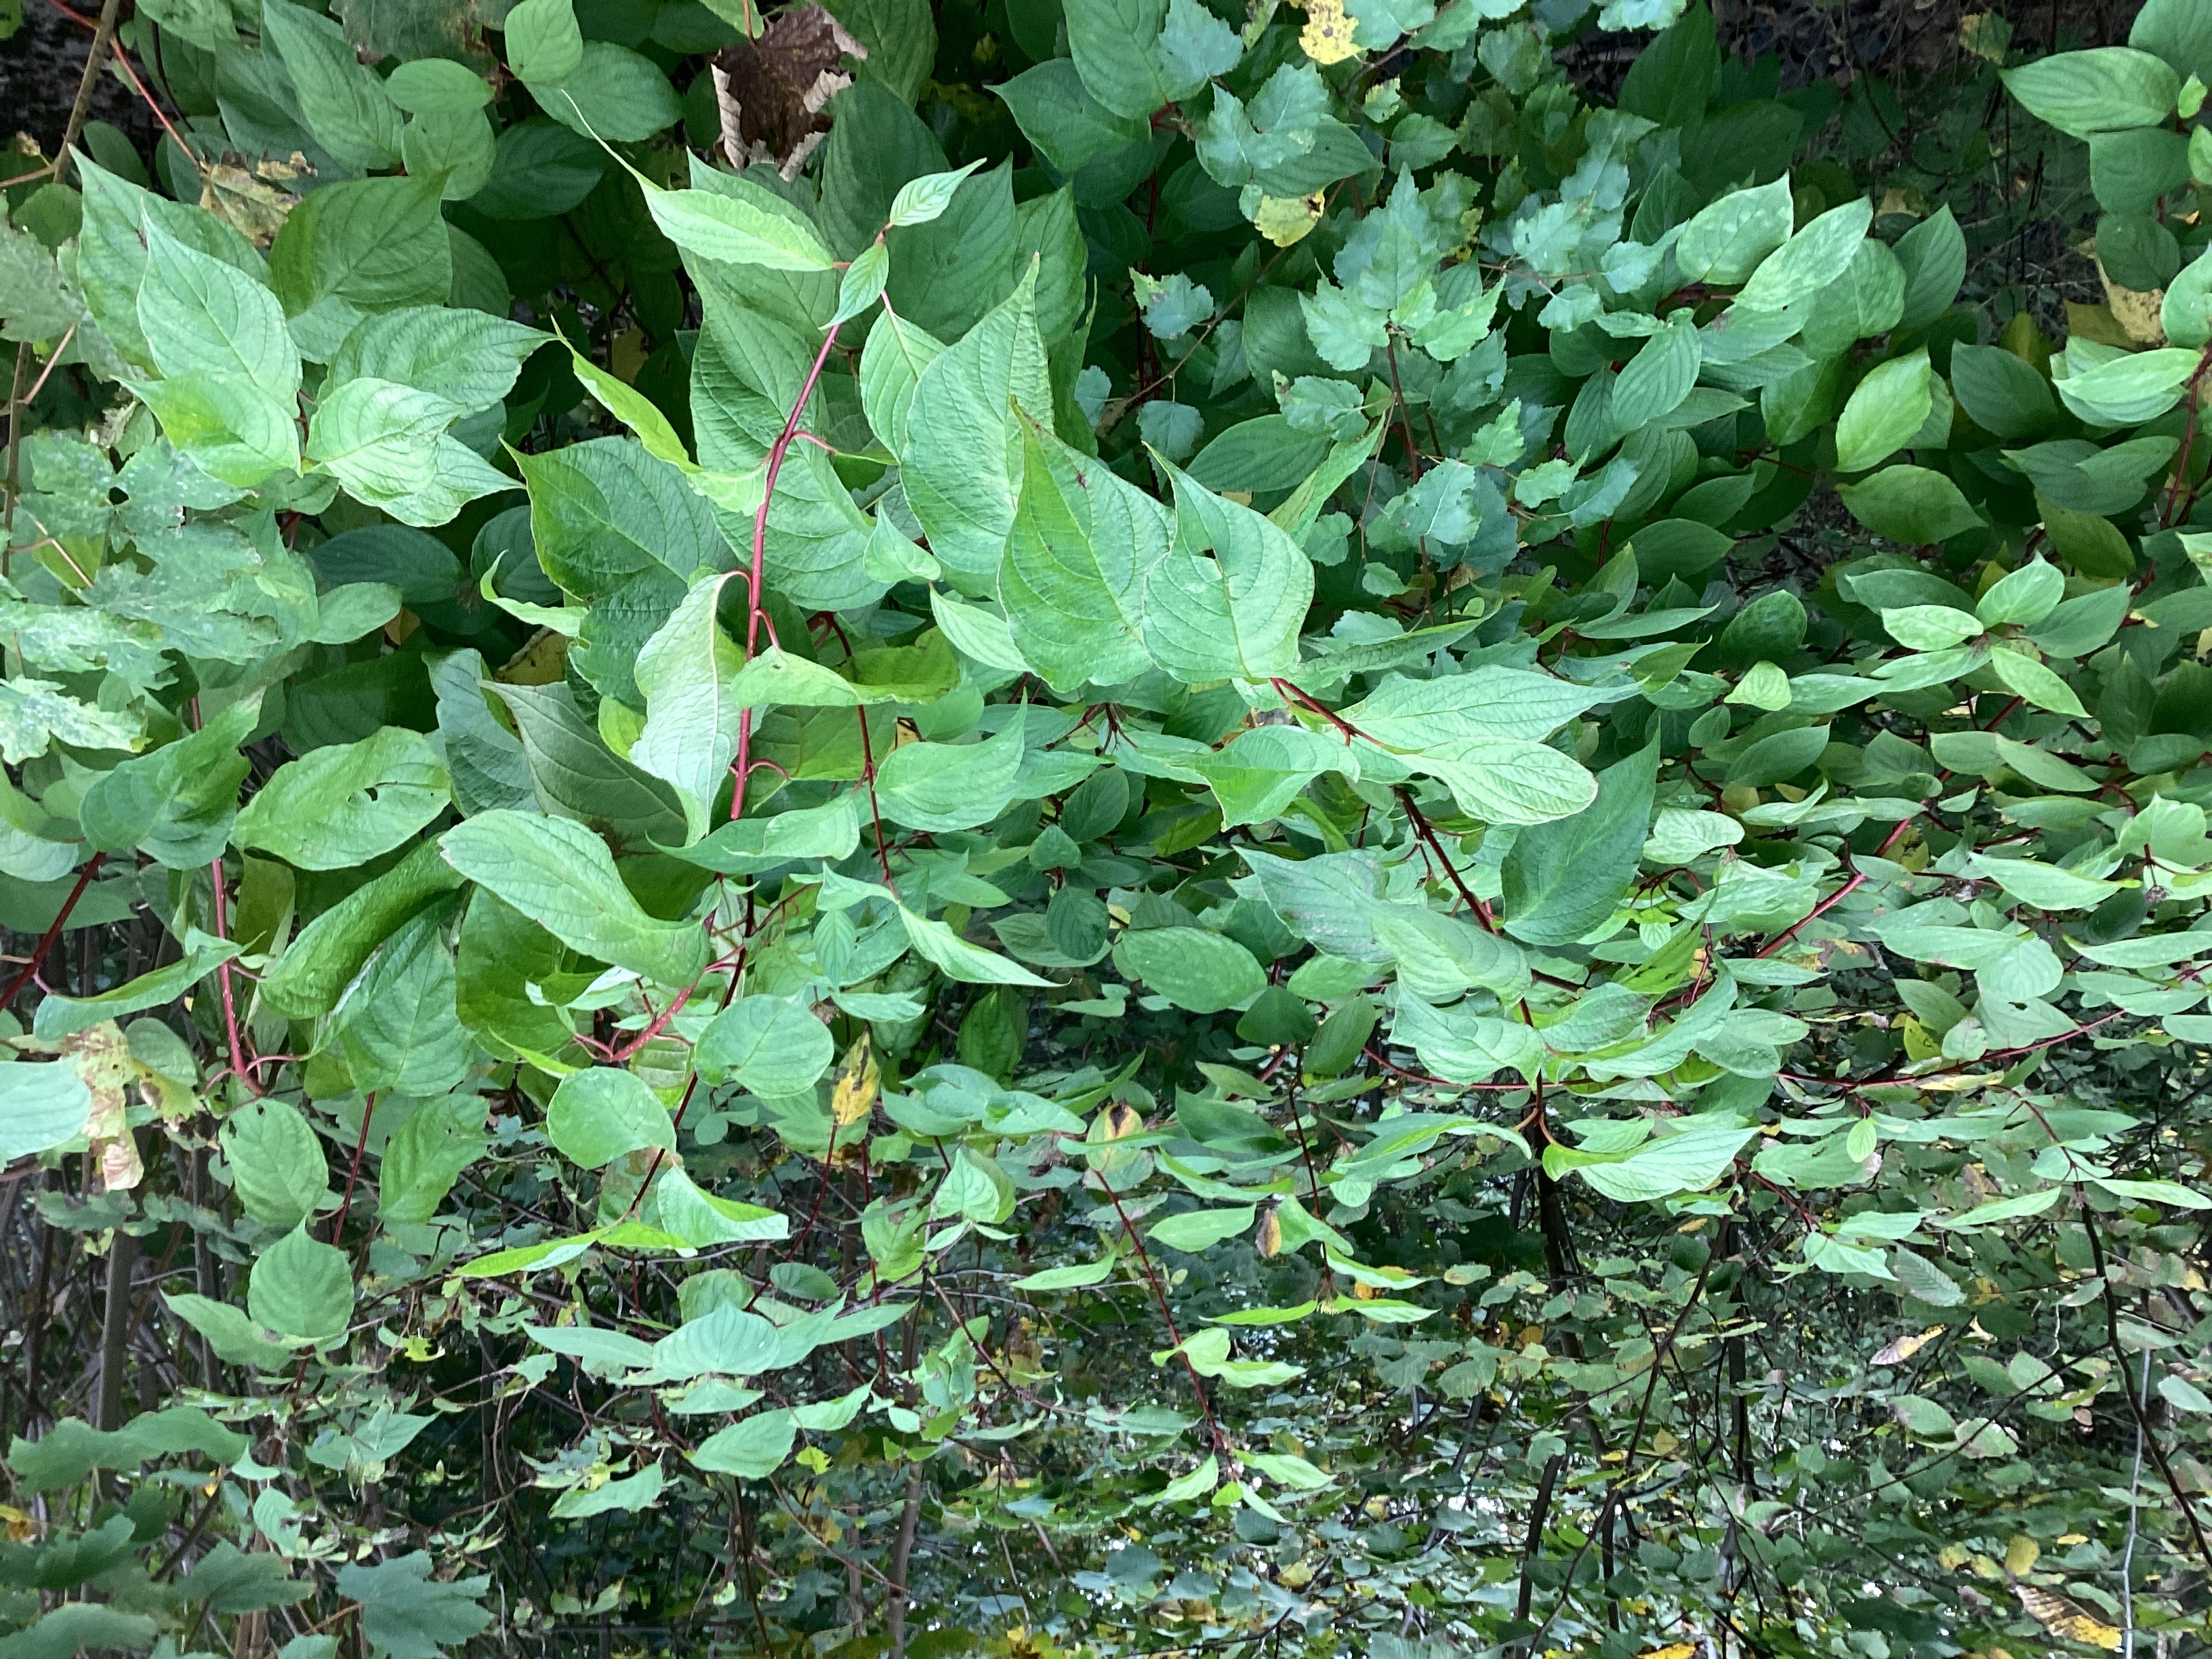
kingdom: Plantae
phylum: Tracheophyta
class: Magnoliopsida
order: Cornales
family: Cornaceae
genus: Cornus
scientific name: Cornus sericea
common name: alaskakornell
